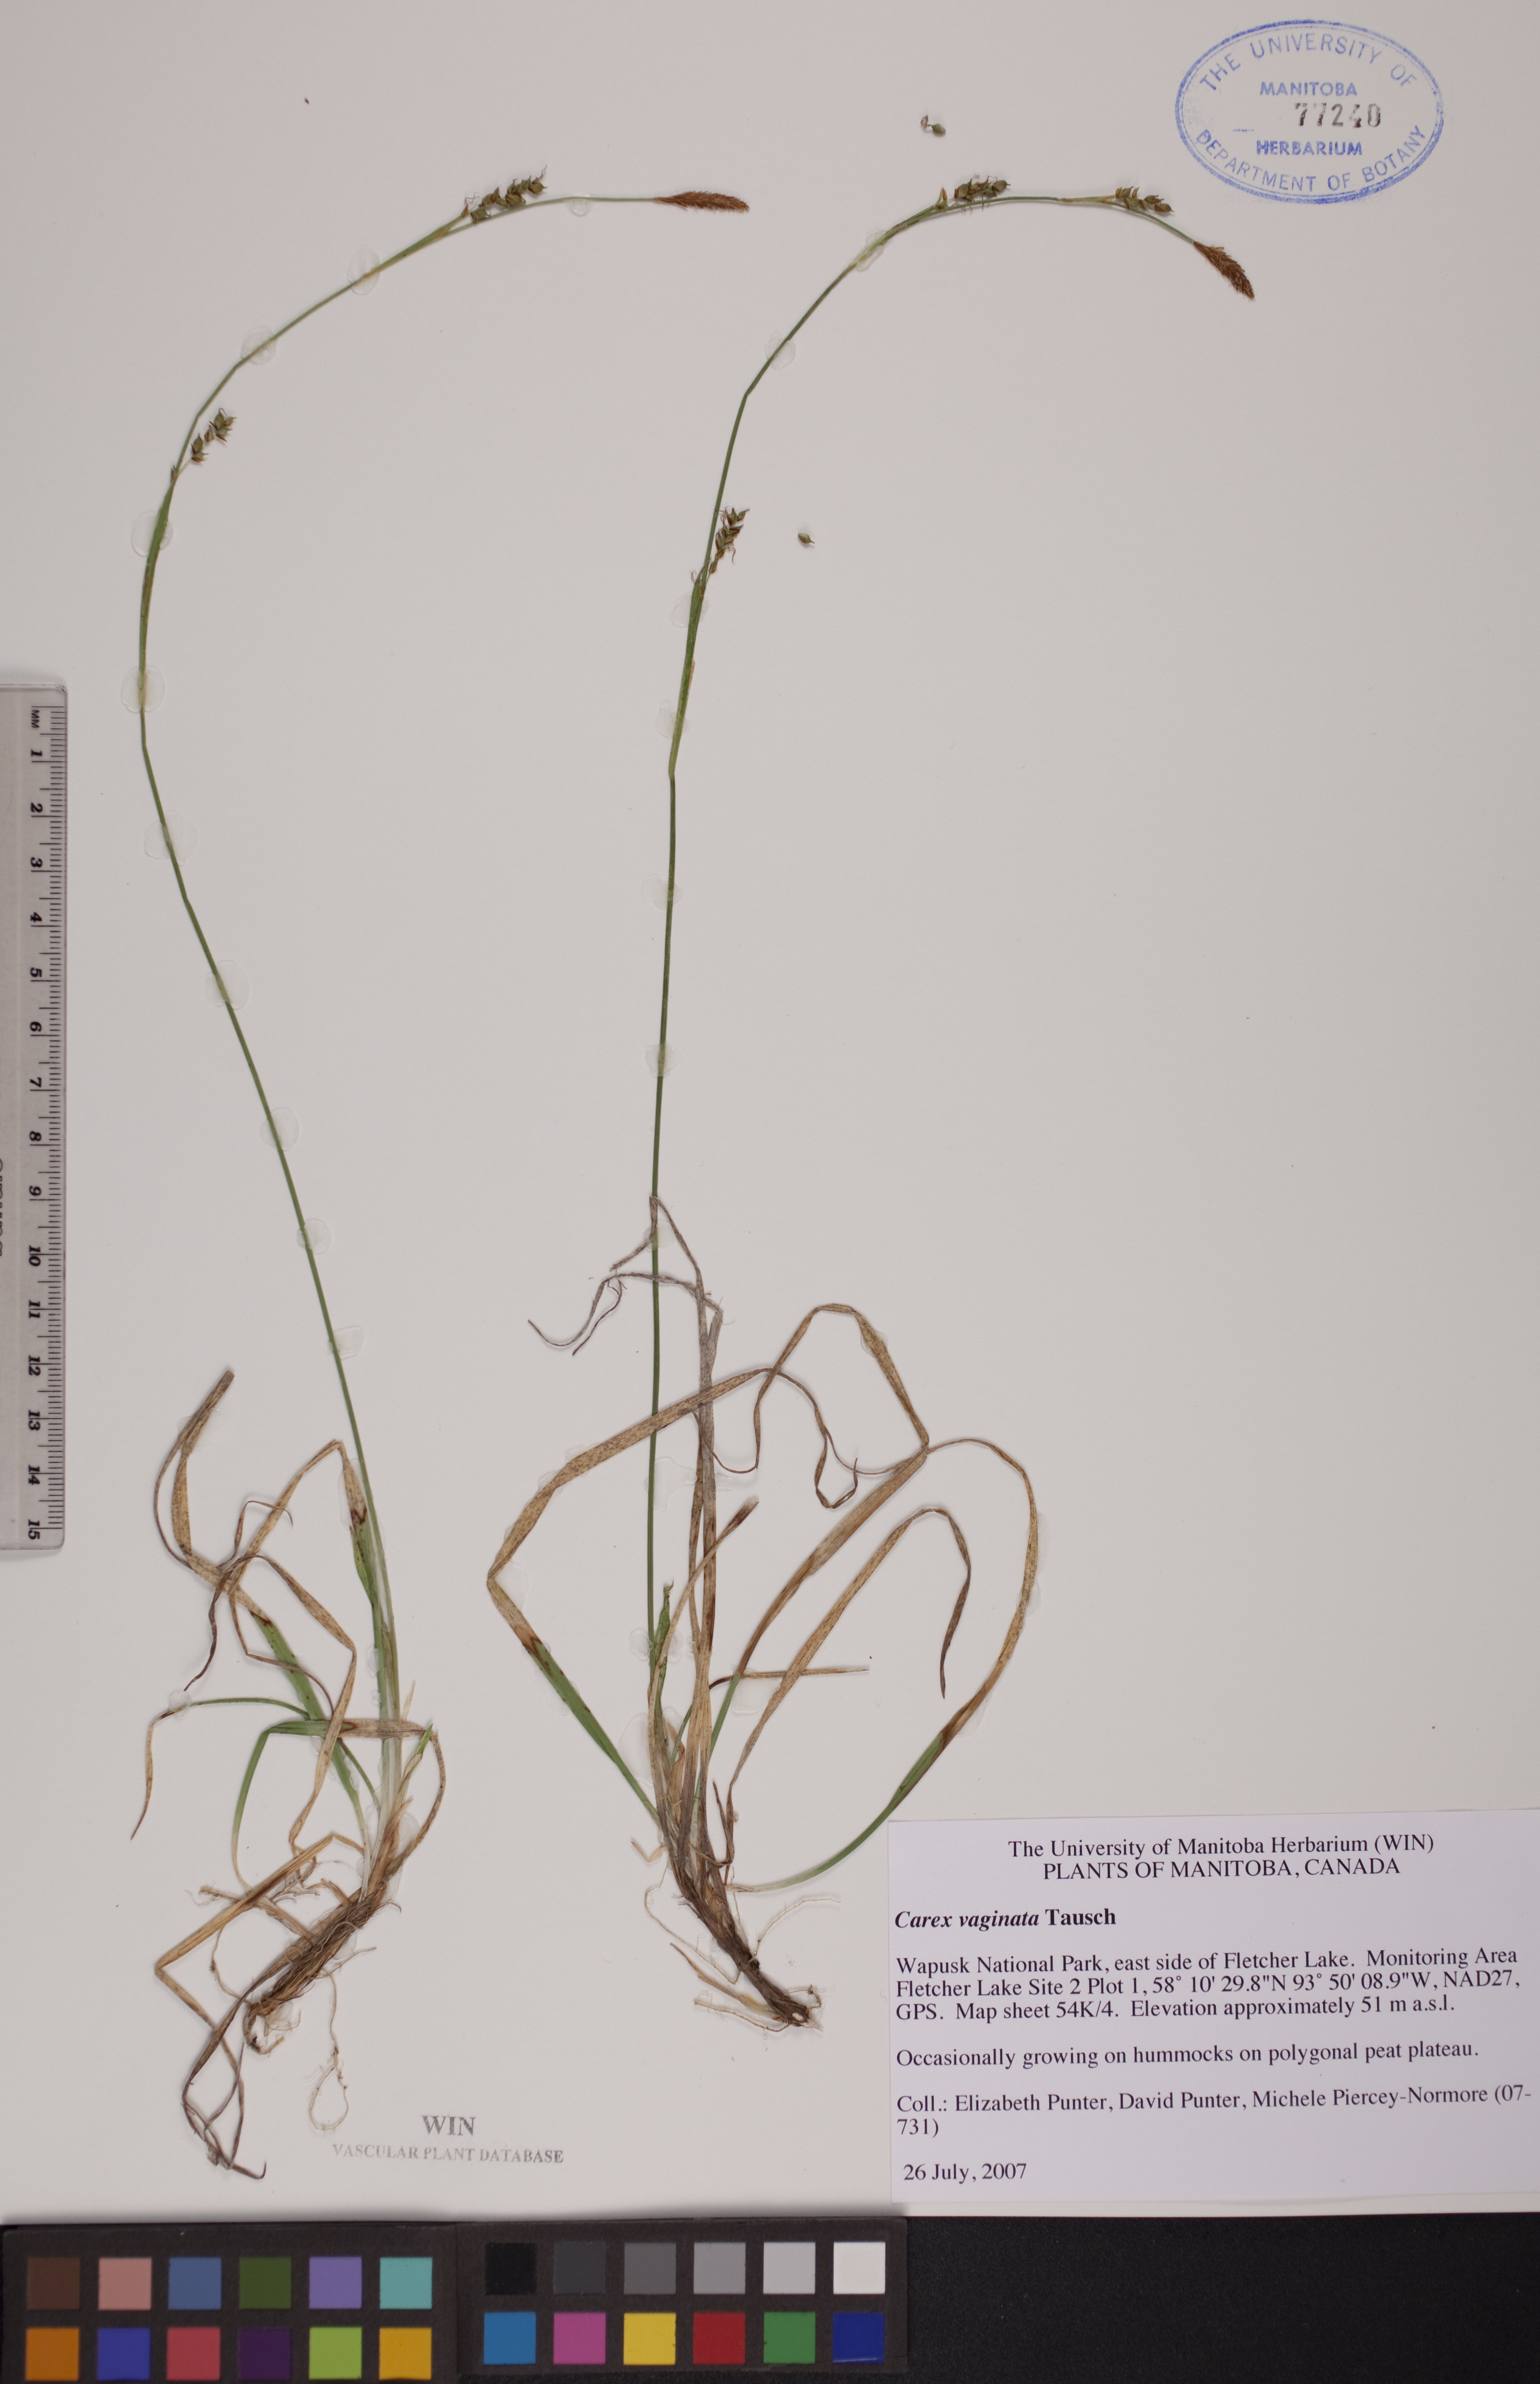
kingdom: Plantae
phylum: Tracheophyta
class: Liliopsida
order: Poales
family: Cyperaceae
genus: Carex
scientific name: Carex vaginata
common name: Sheathed sedge
